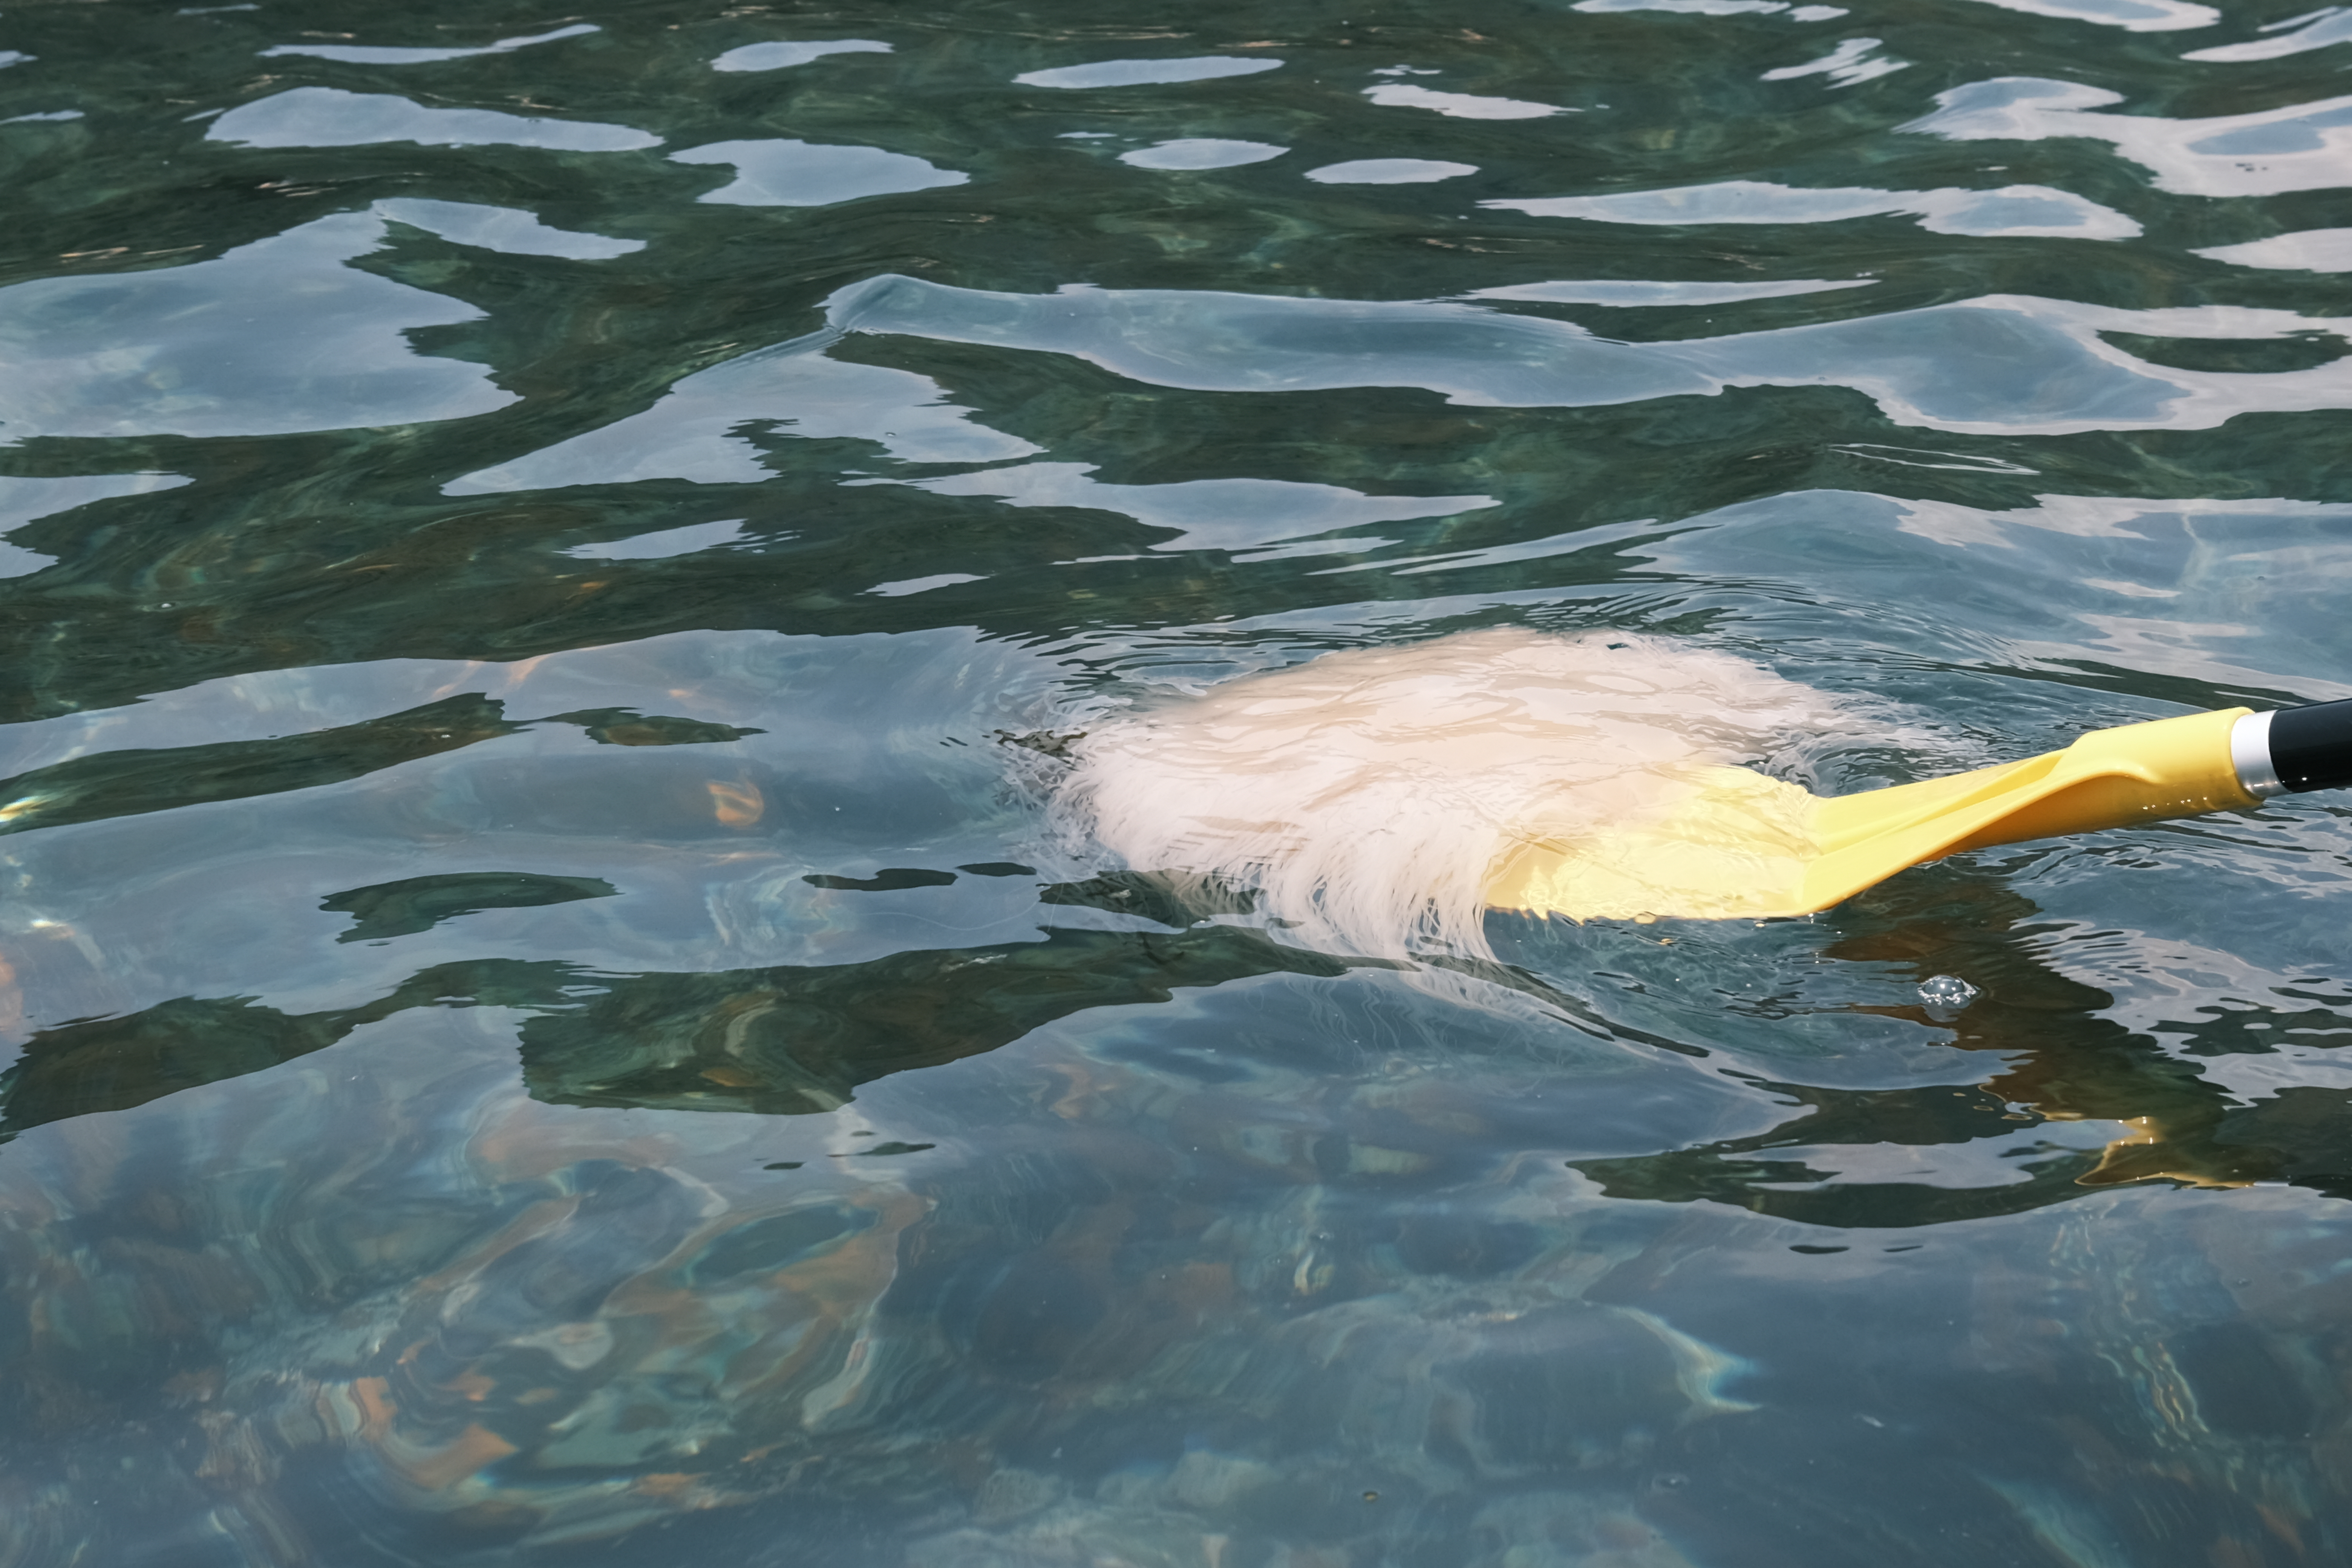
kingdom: Animalia
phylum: Cnidaria
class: Scyphozoa
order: Semaeostomeae
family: Cyaneidae
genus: Cyanea
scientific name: Cyanea nozakii
